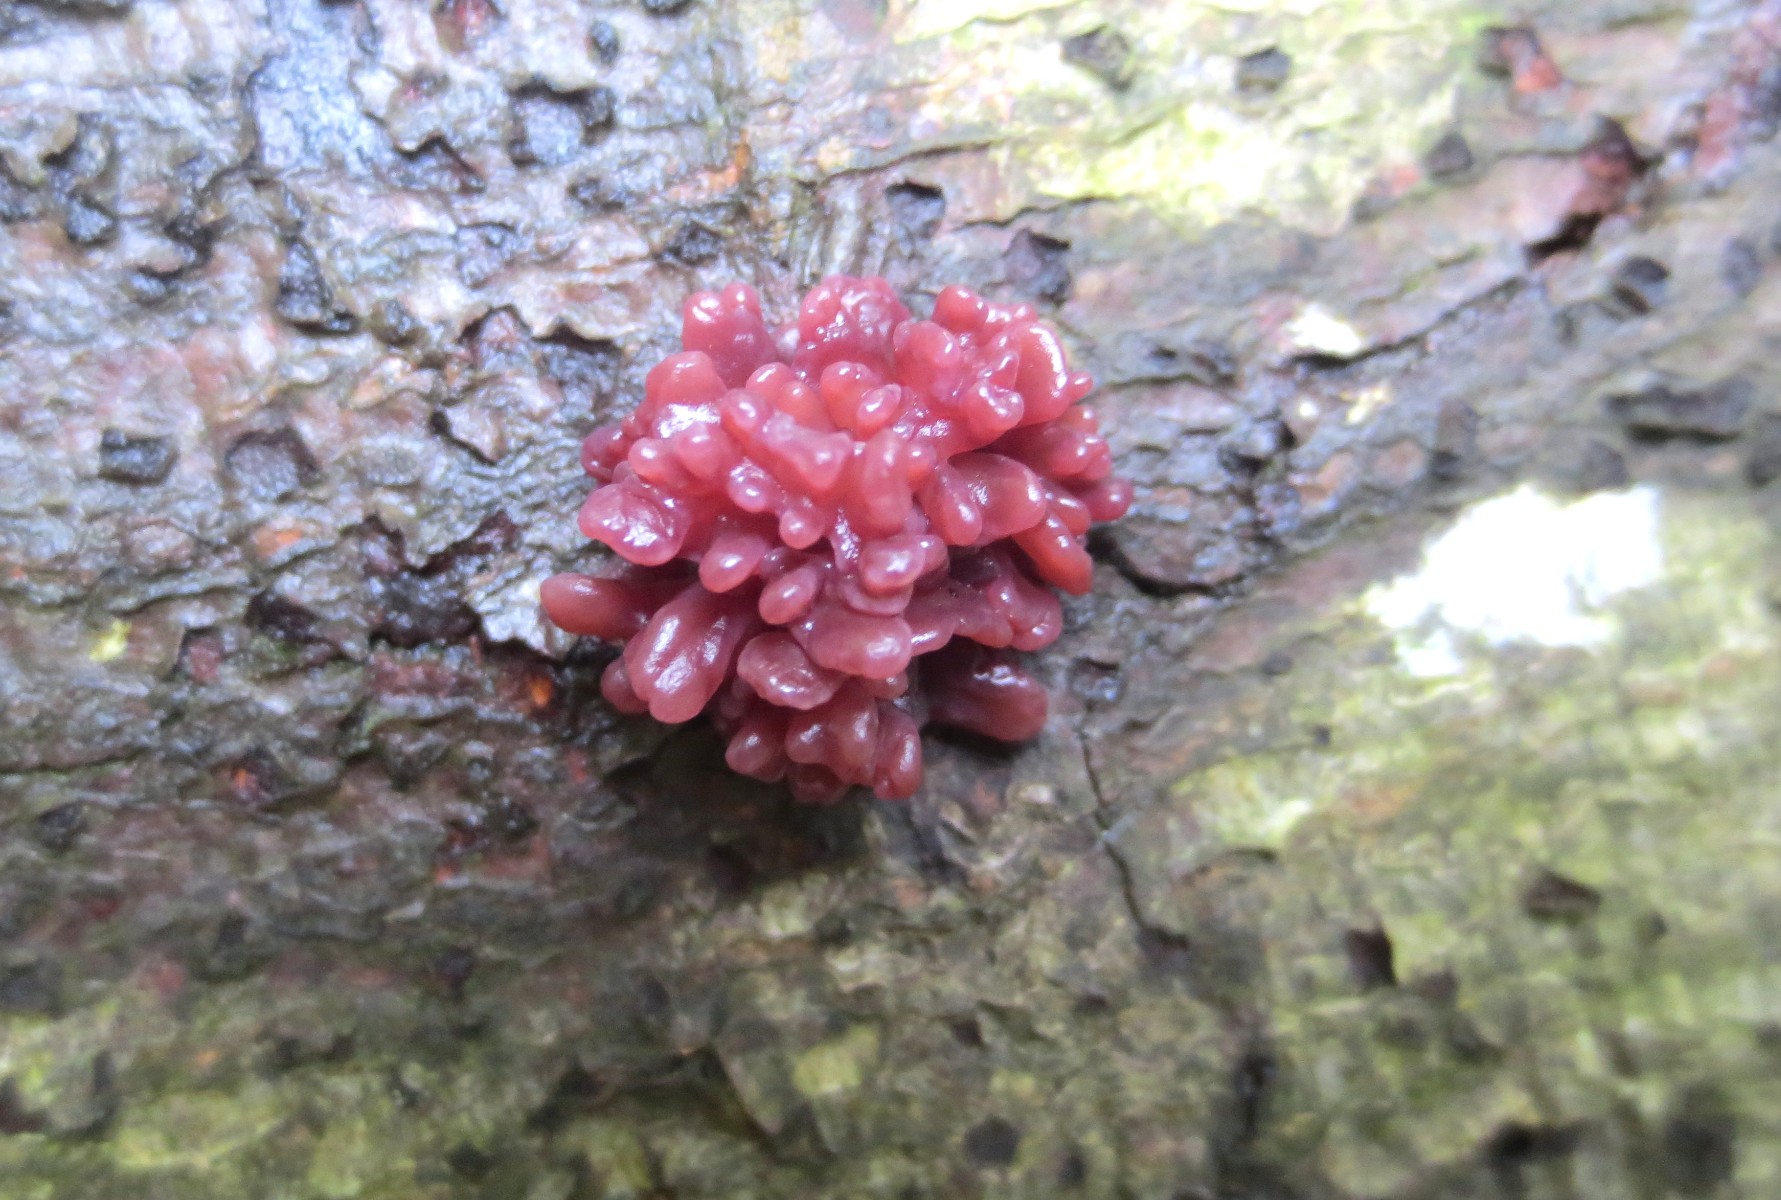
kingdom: Fungi
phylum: Ascomycota
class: Leotiomycetes
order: Helotiales
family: Gelatinodiscaceae
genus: Ascocoryne
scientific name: Ascocoryne sarcoides
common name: rødlilla sejskive
